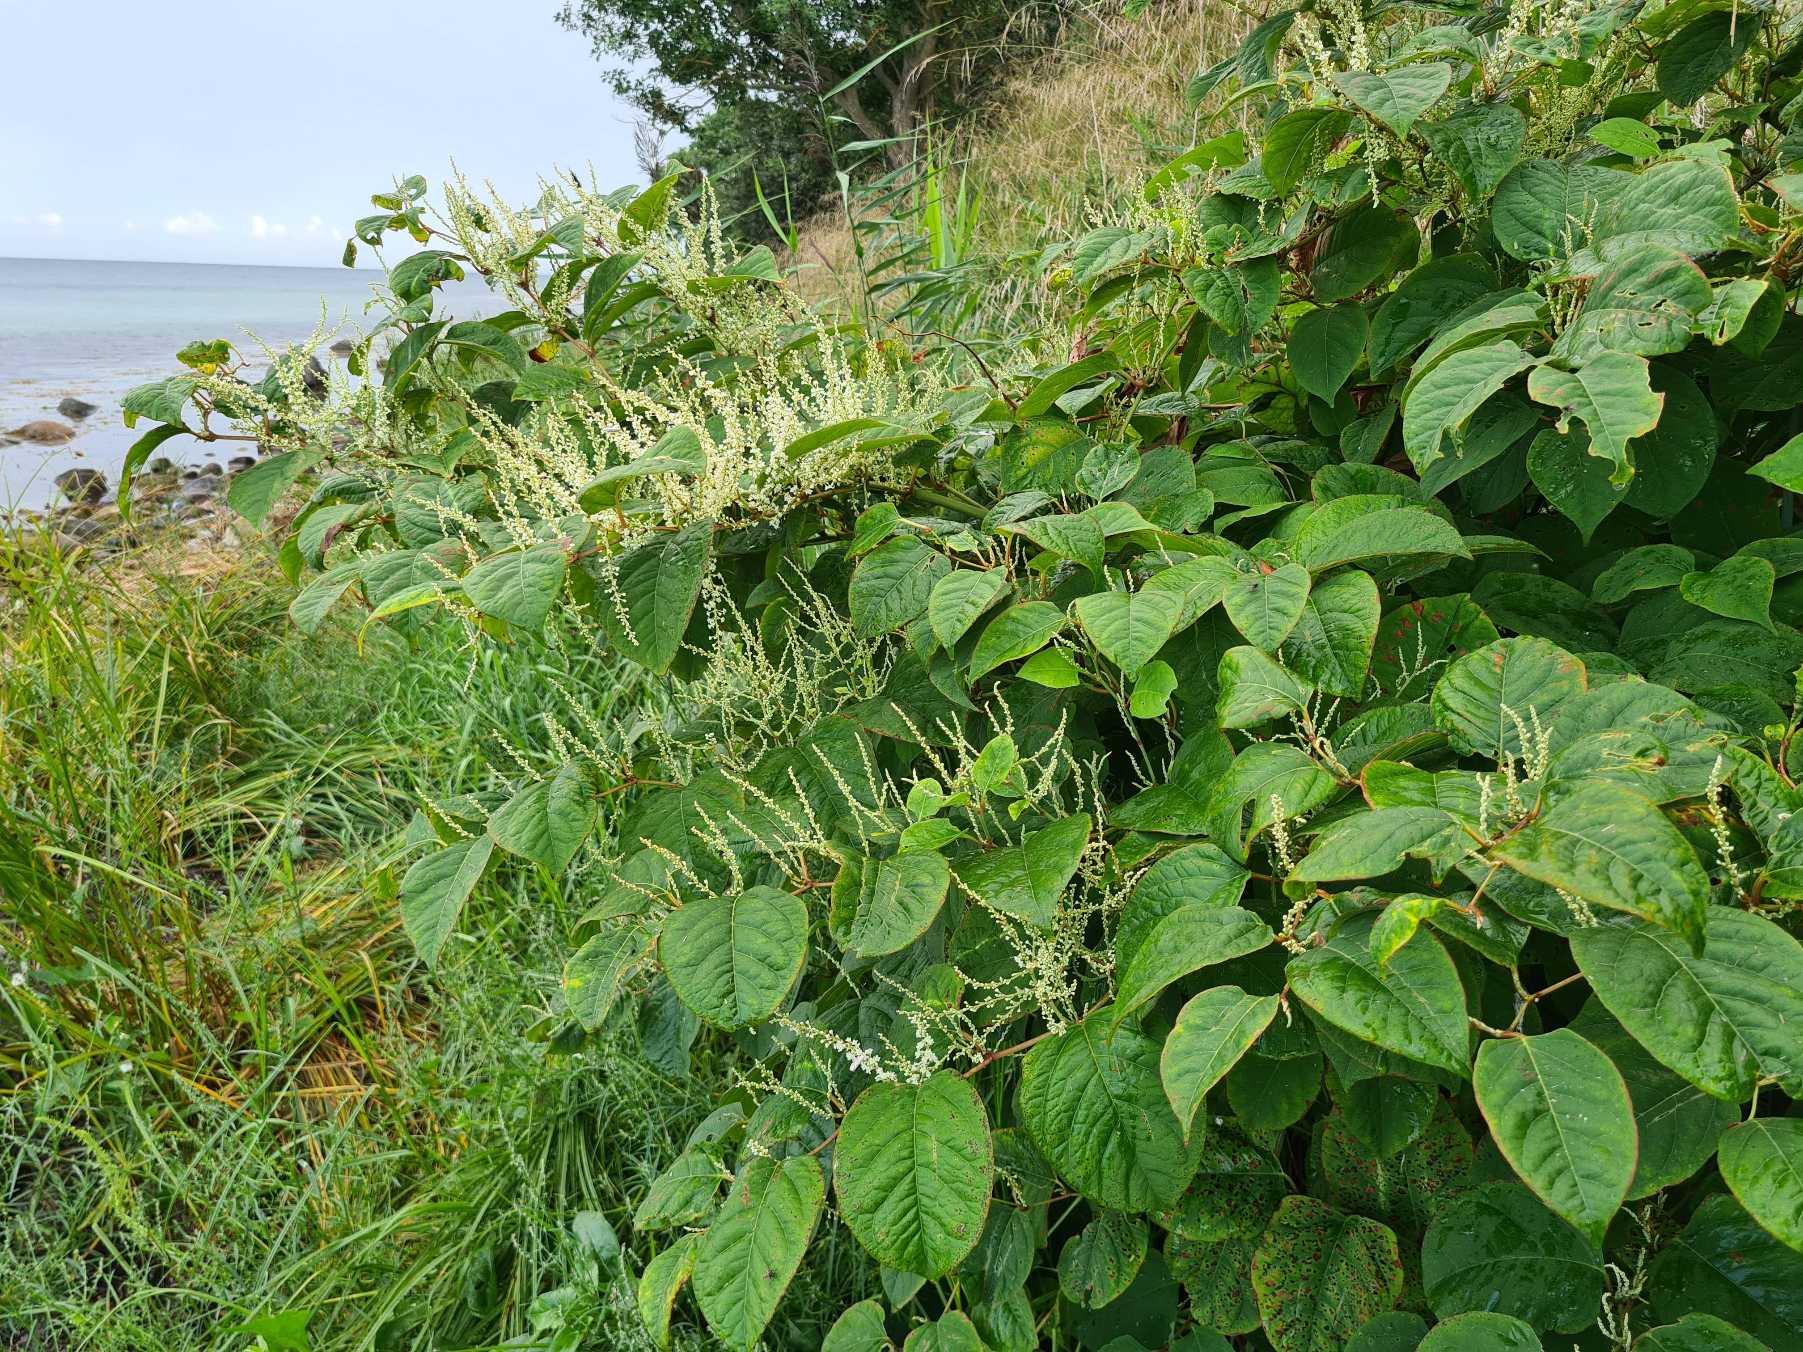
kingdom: Plantae
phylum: Tracheophyta
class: Magnoliopsida
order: Caryophyllales
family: Polygonaceae
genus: Reynoutria
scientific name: Reynoutria japonica
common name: Japan-pileurt
